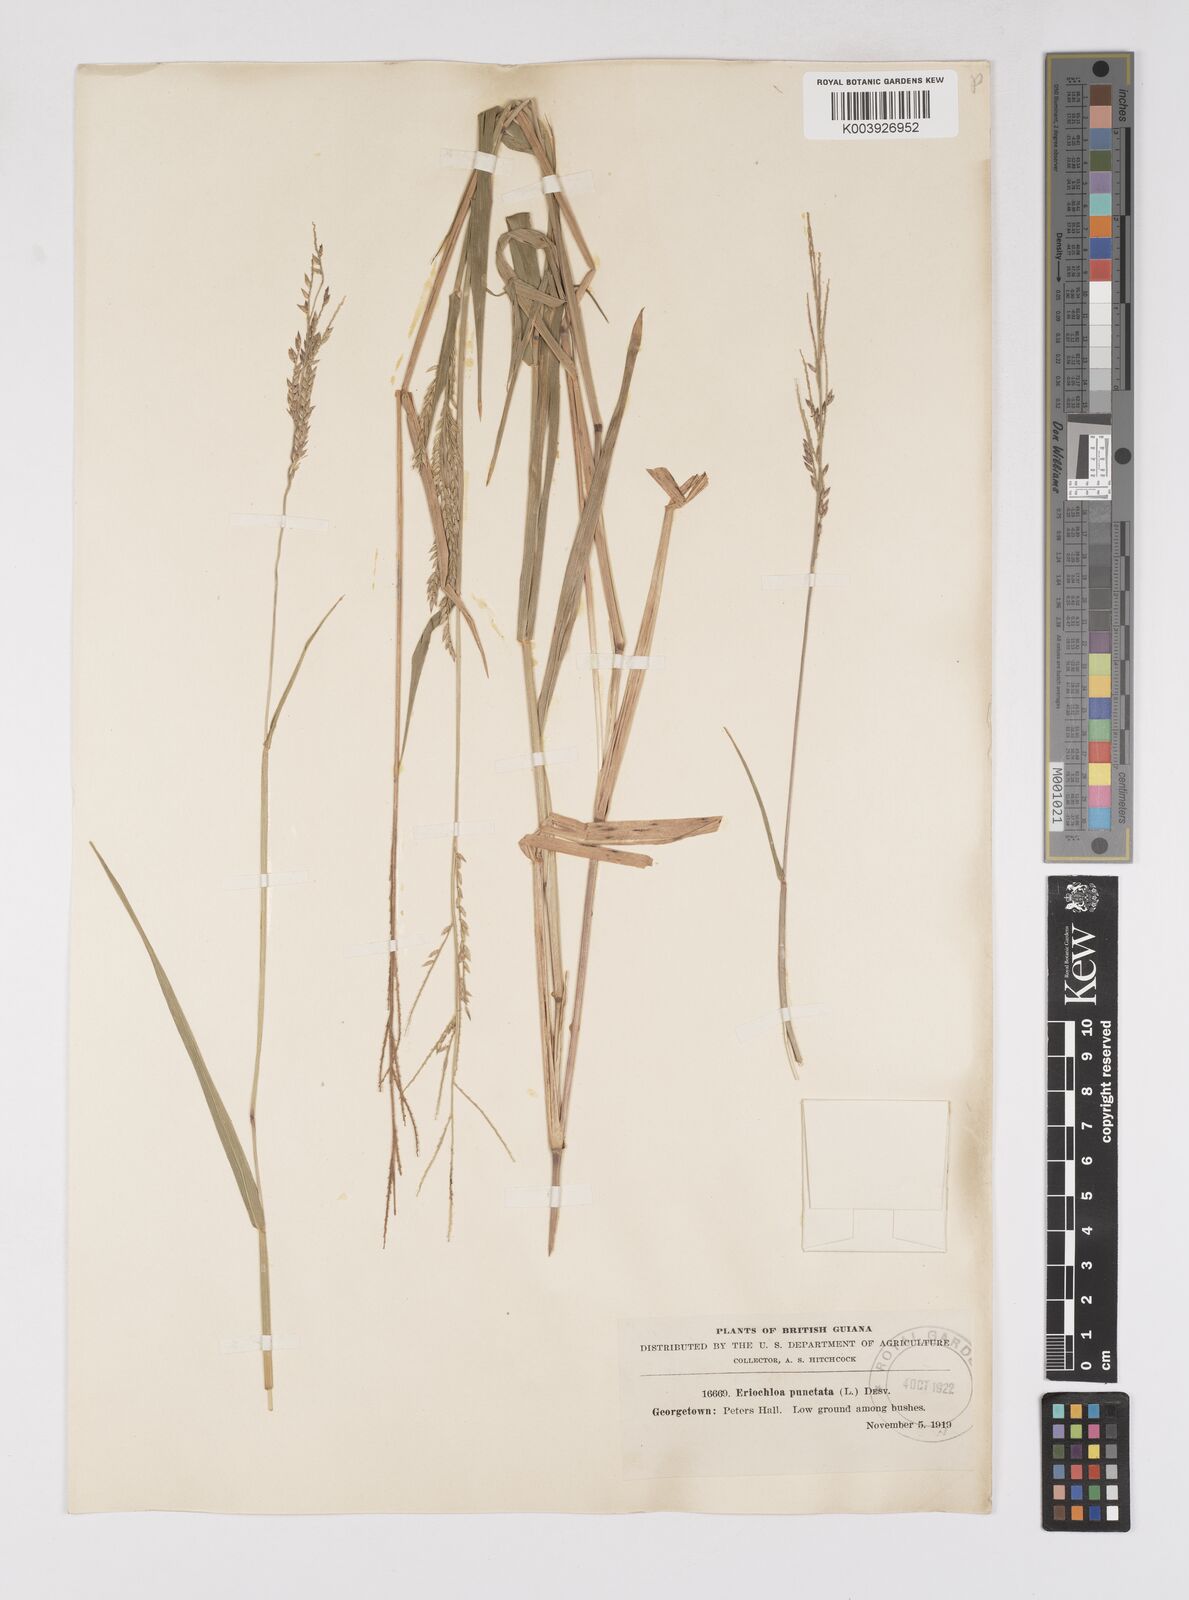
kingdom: Plantae
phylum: Tracheophyta
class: Liliopsida
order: Poales
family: Poaceae
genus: Eriochloa
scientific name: Eriochloa punctata
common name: Louisiana cupgrass
